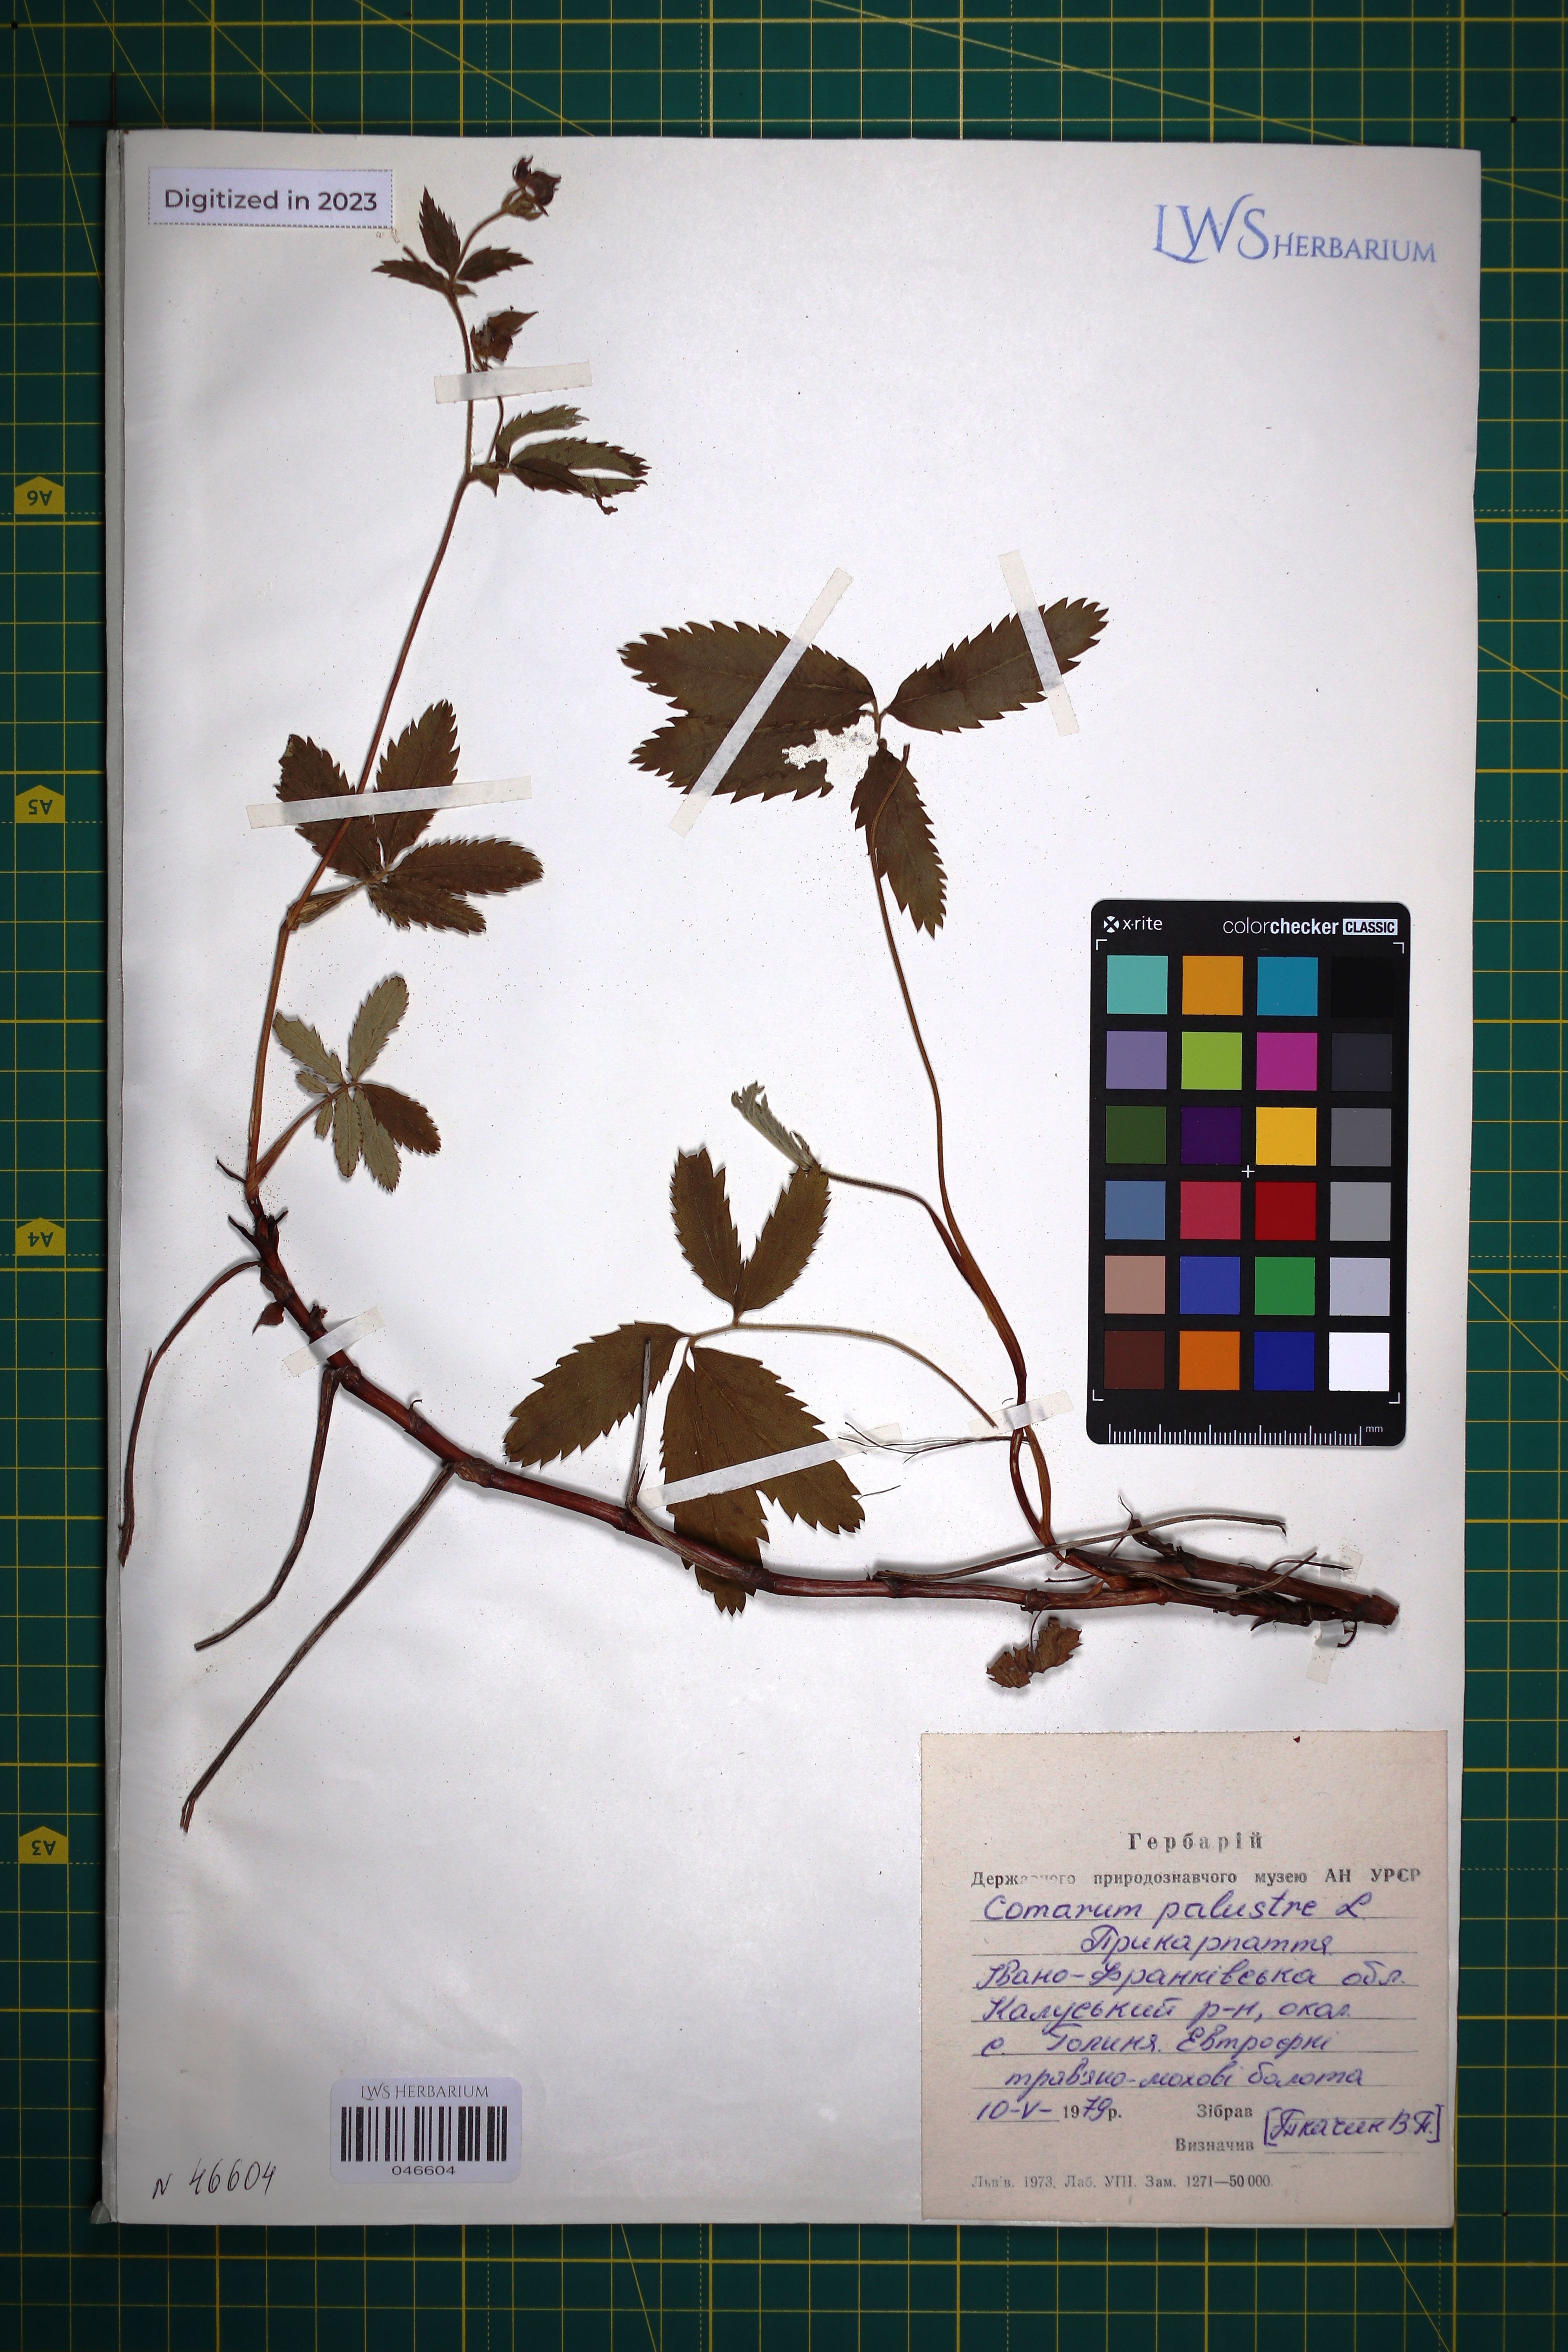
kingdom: Plantae
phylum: Tracheophyta
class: Magnoliopsida
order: Rosales
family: Rosaceae
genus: Comarum
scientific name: Comarum palustre
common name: Marsh cinquefoil
